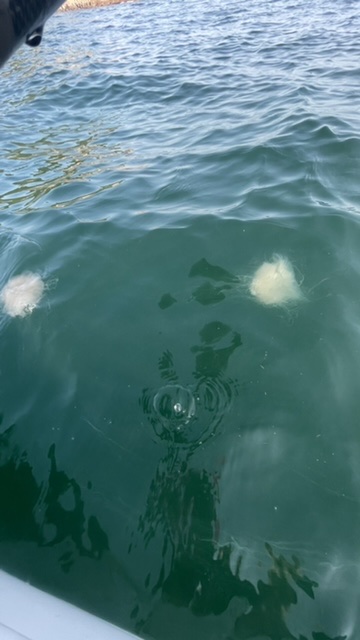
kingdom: Animalia
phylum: Cnidaria
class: Scyphozoa
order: Semaeostomeae
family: Cyaneidae
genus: Cyanea
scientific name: Cyanea nozakii
